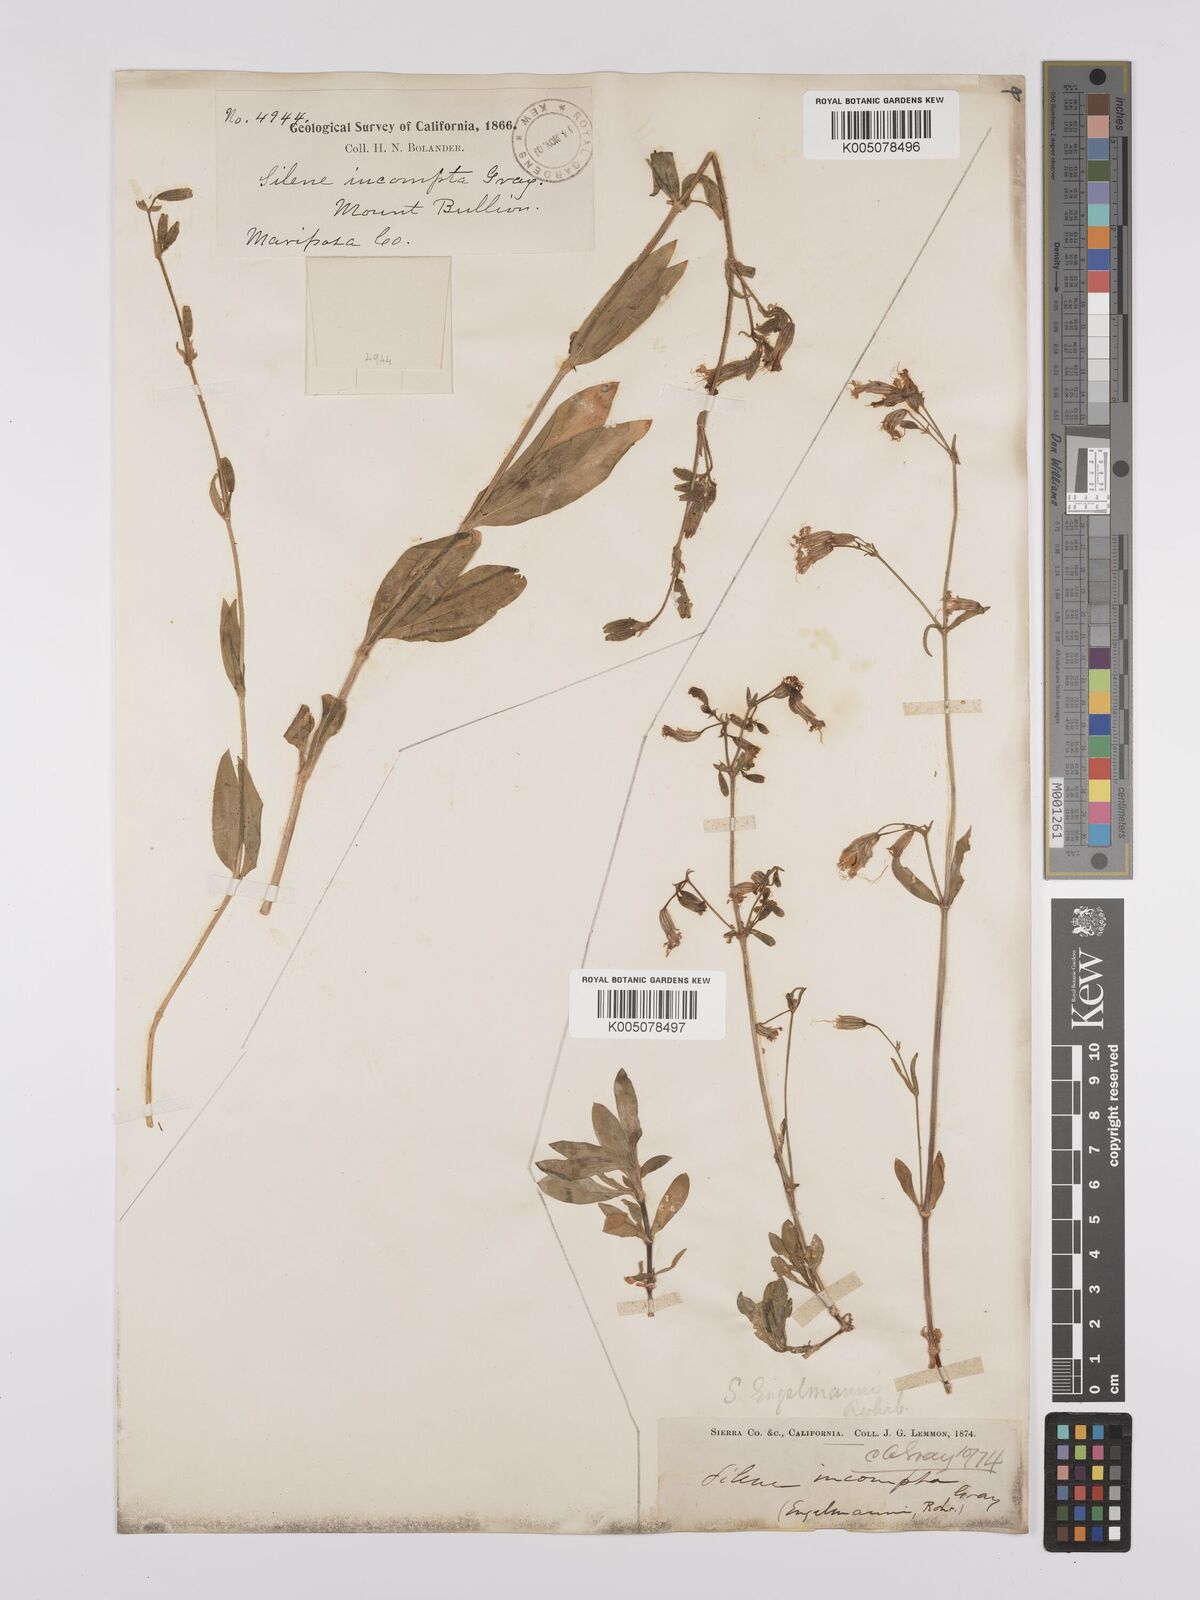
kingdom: Plantae
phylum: Tracheophyta
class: Magnoliopsida
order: Caryophyllales
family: Caryophyllaceae
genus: Silene
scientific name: Silene bridgesii
